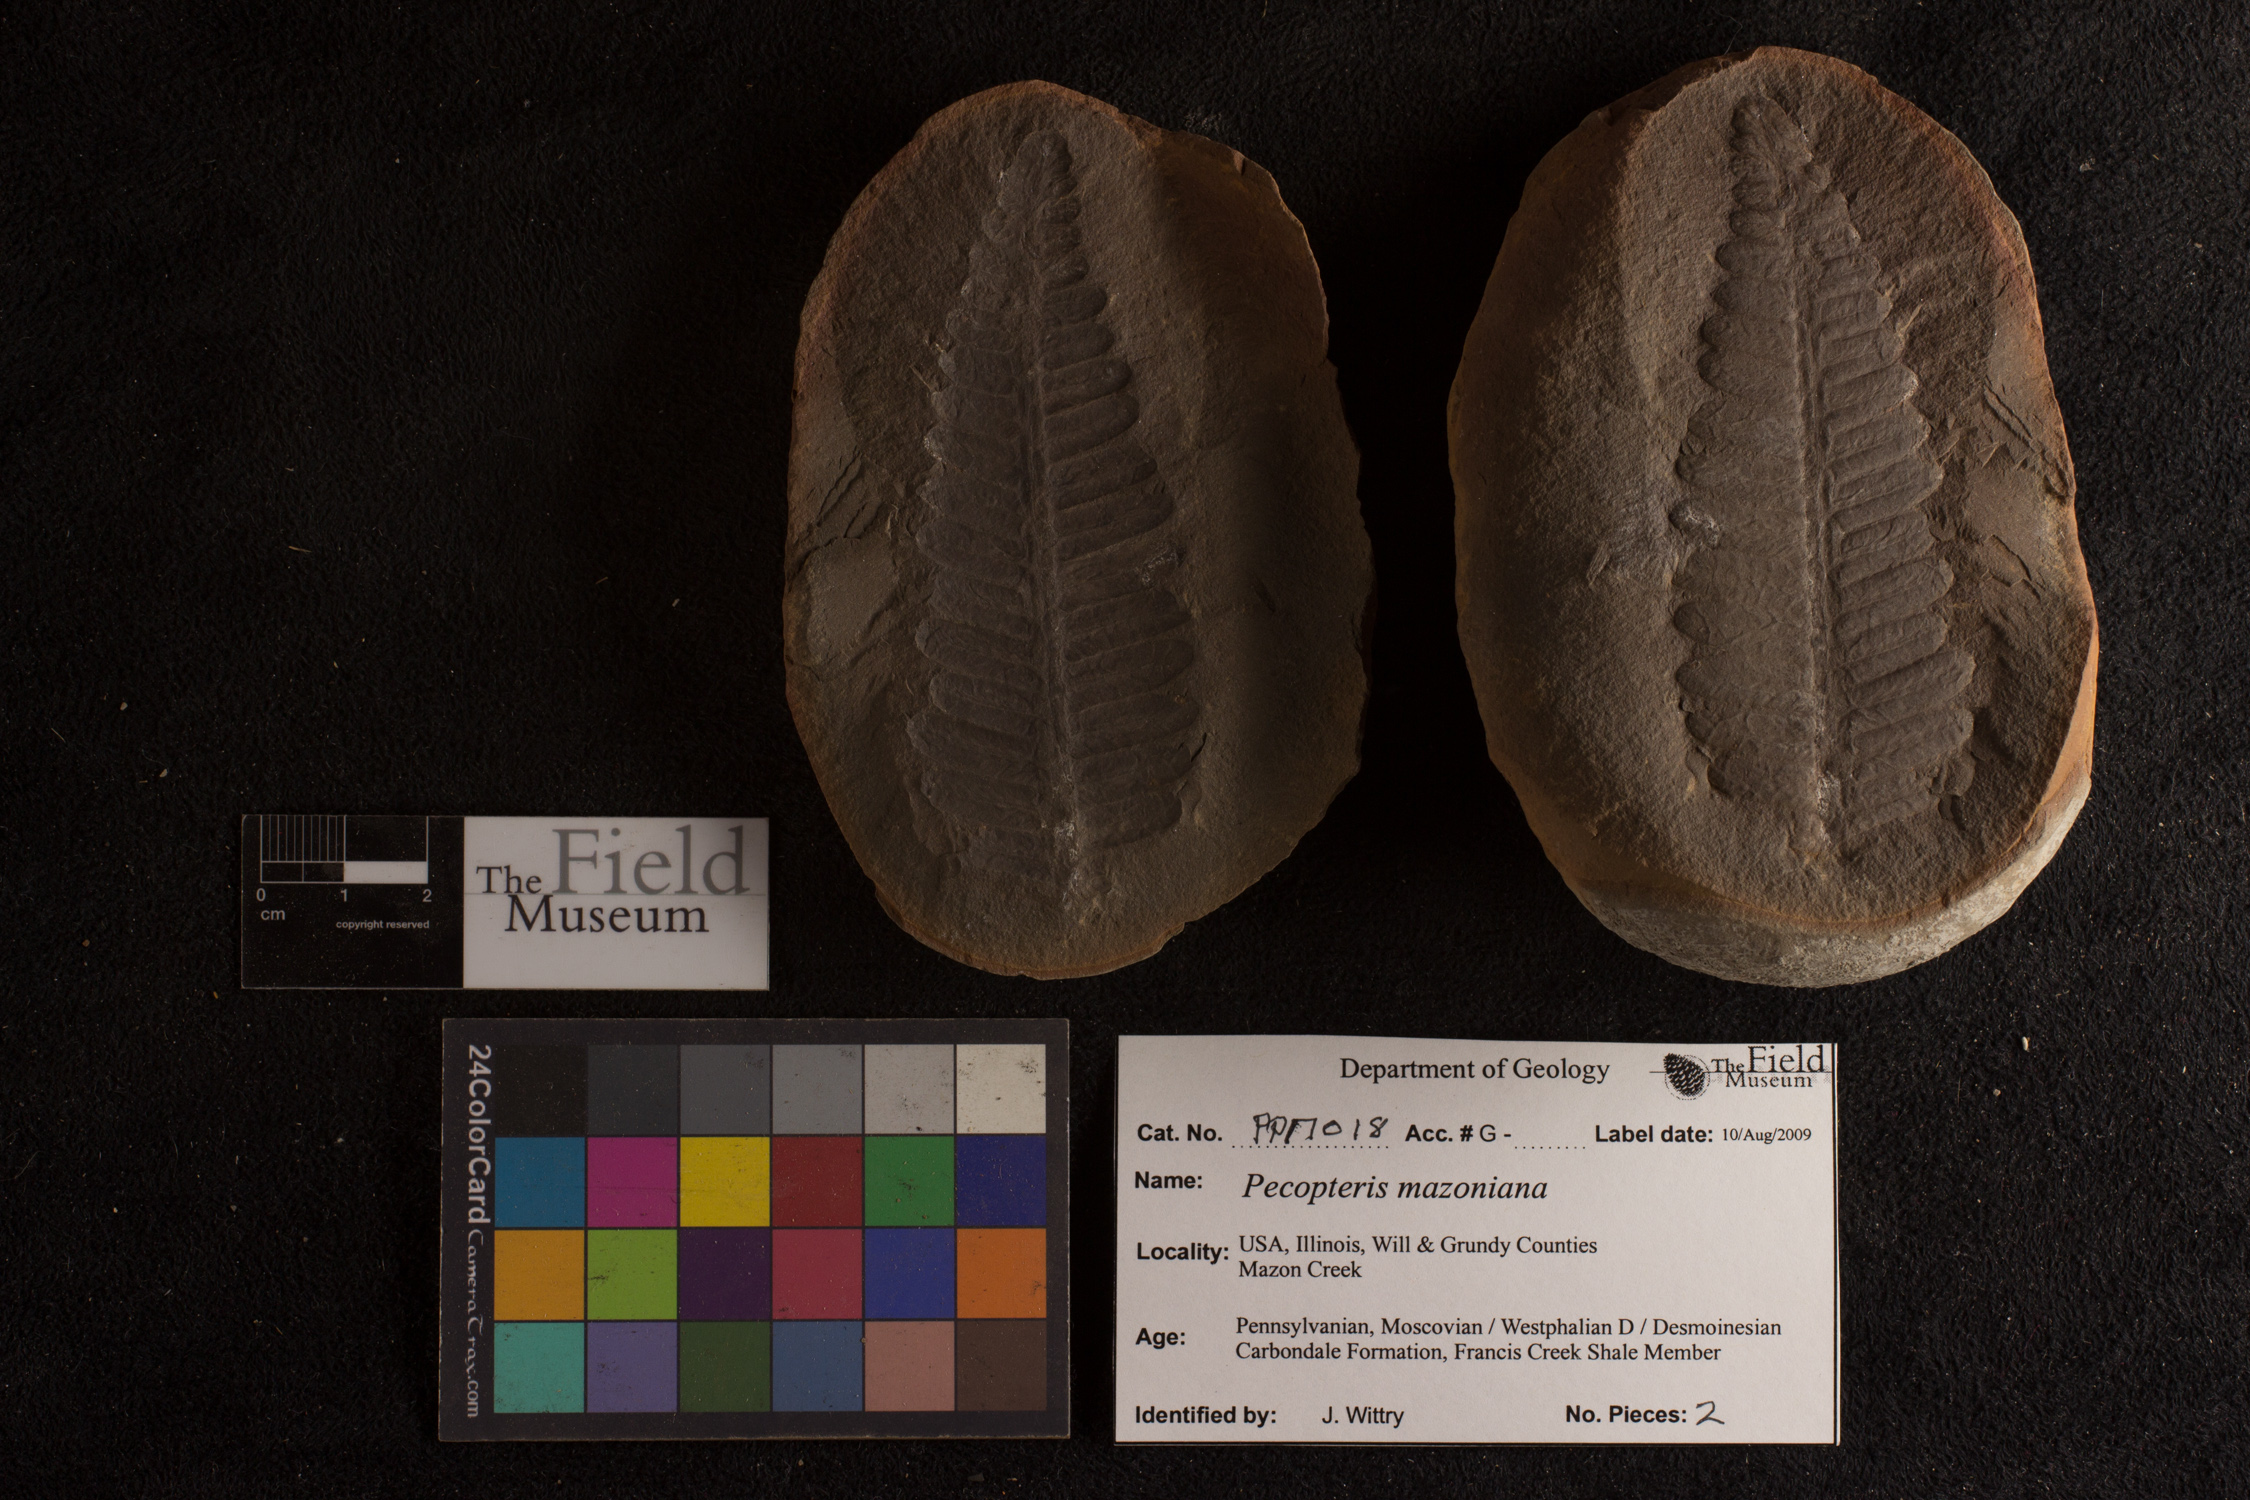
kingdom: Plantae
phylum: Tracheophyta
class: Polypodiopsida
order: Marattiales
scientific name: Marattiales
